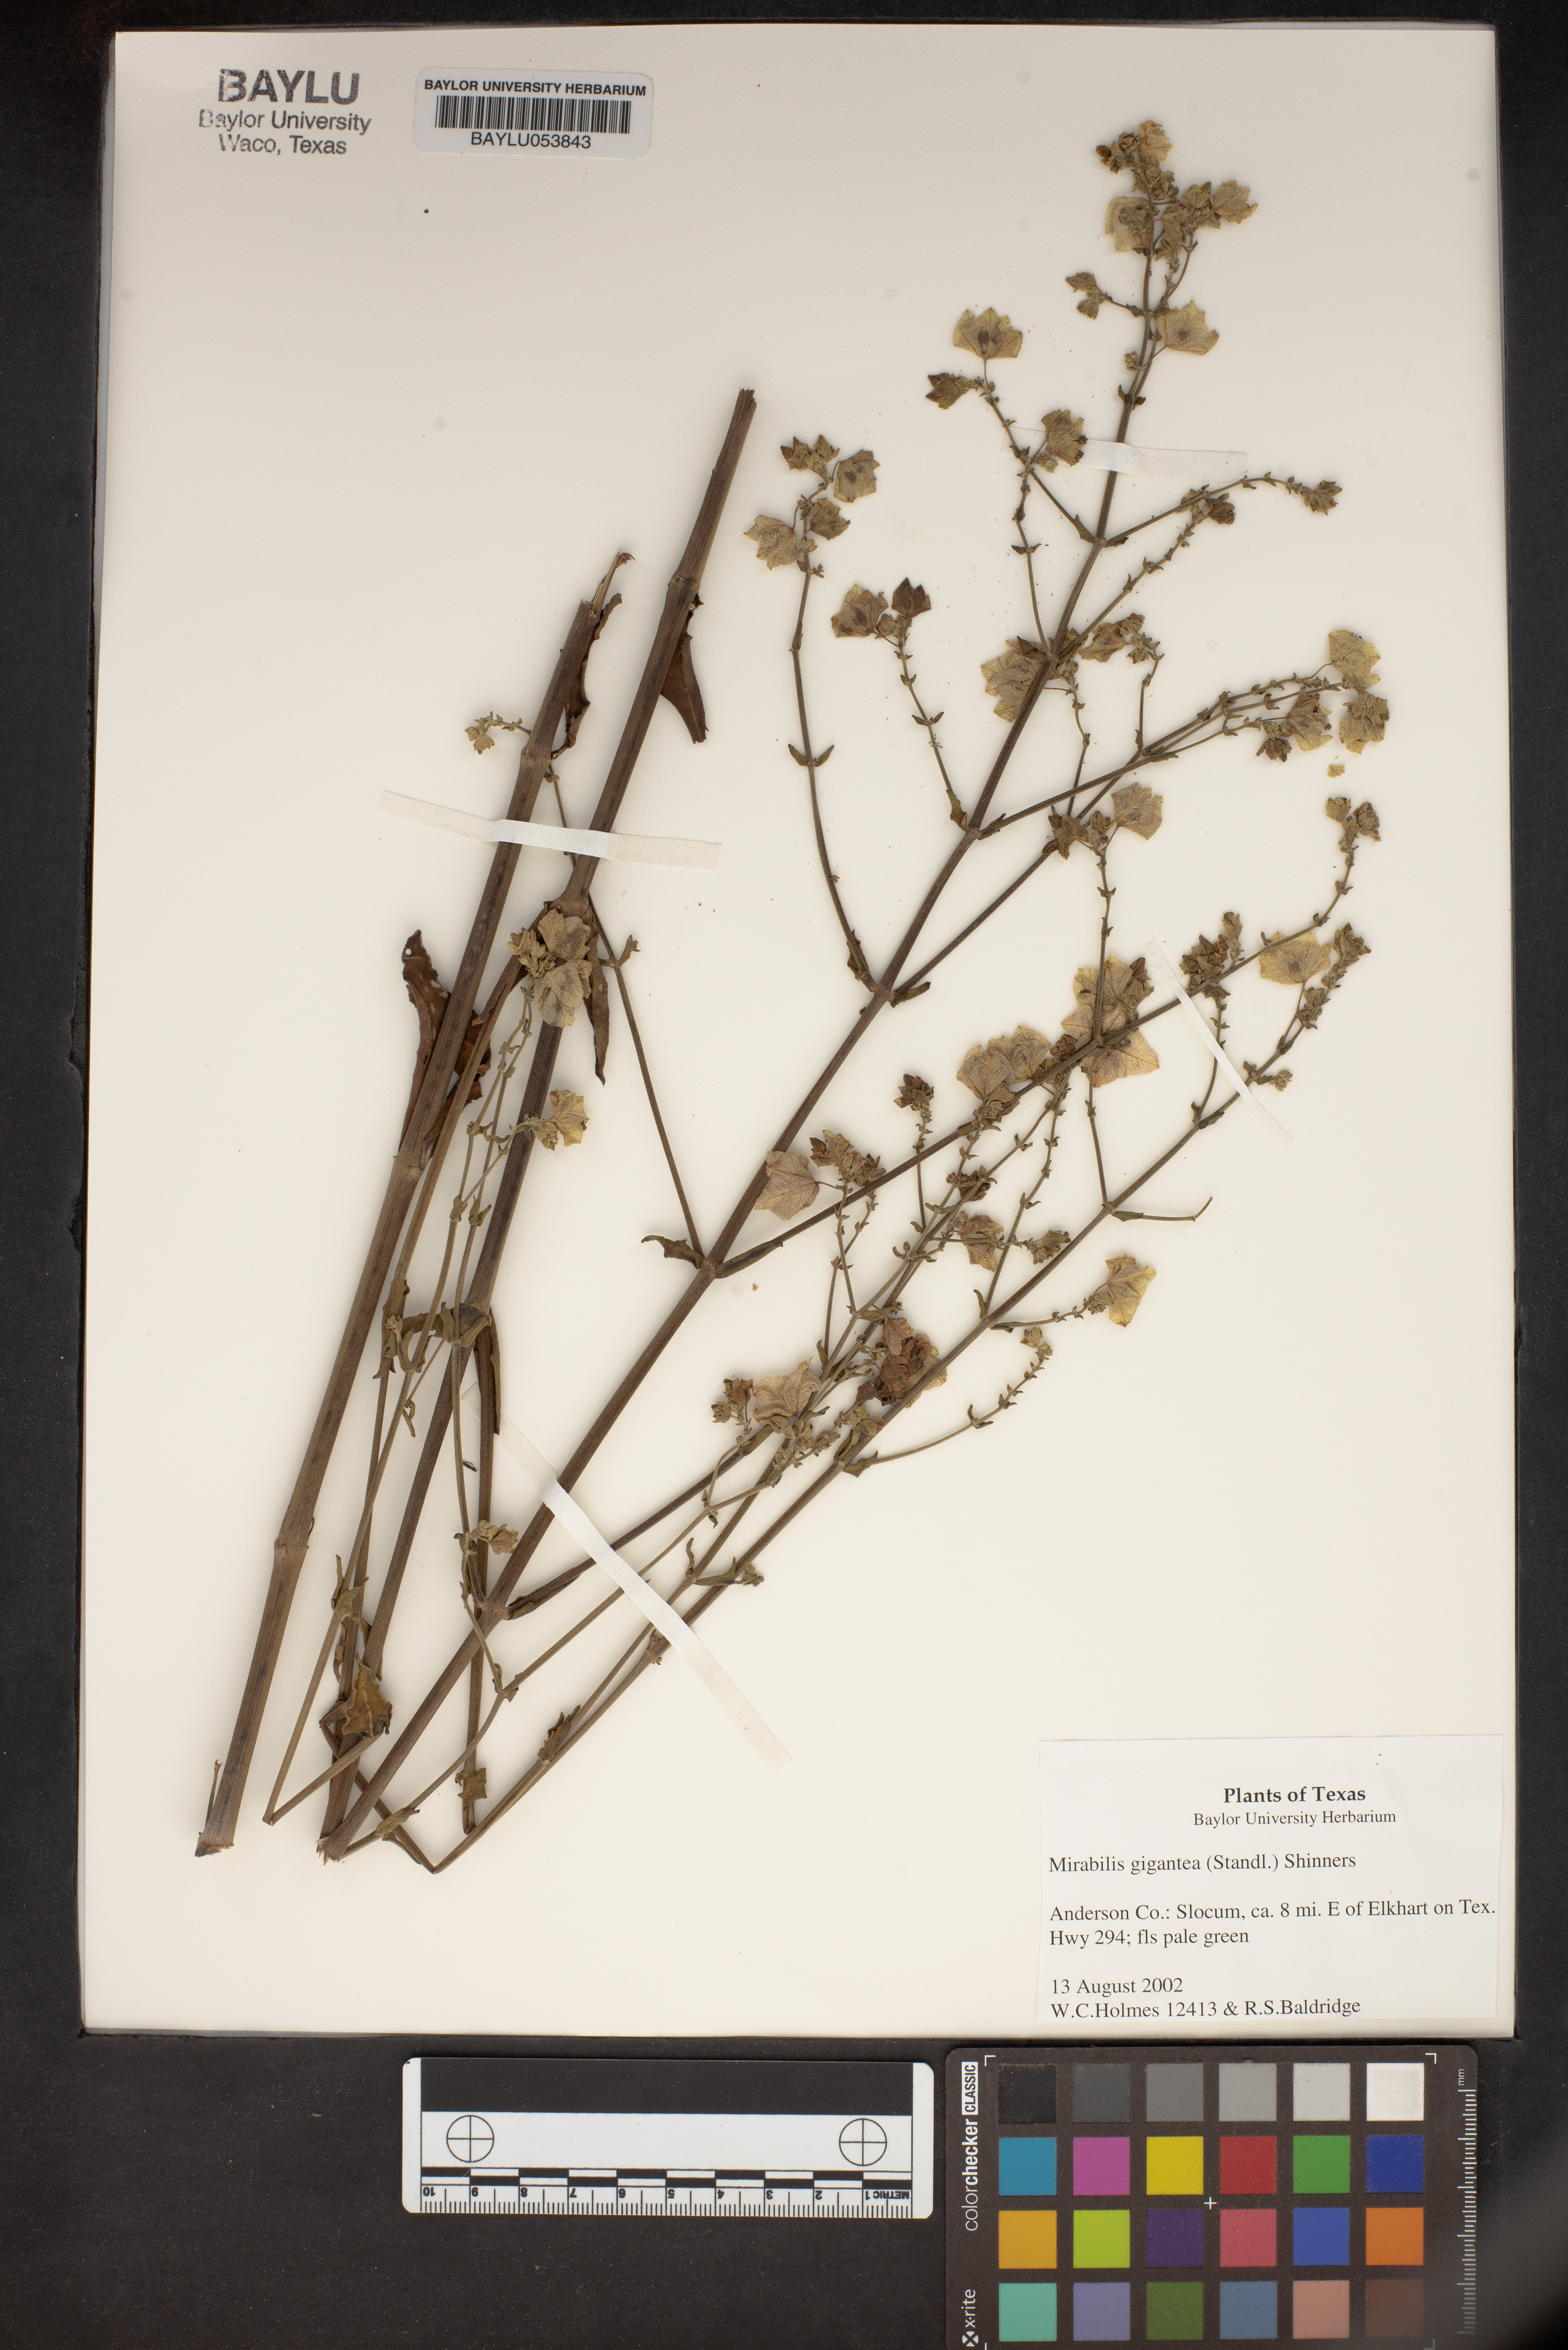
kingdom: Plantae
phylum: Tracheophyta
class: Magnoliopsida
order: Caryophyllales
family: Nyctaginaceae
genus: Mirabilis
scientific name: Mirabilis gigantea
